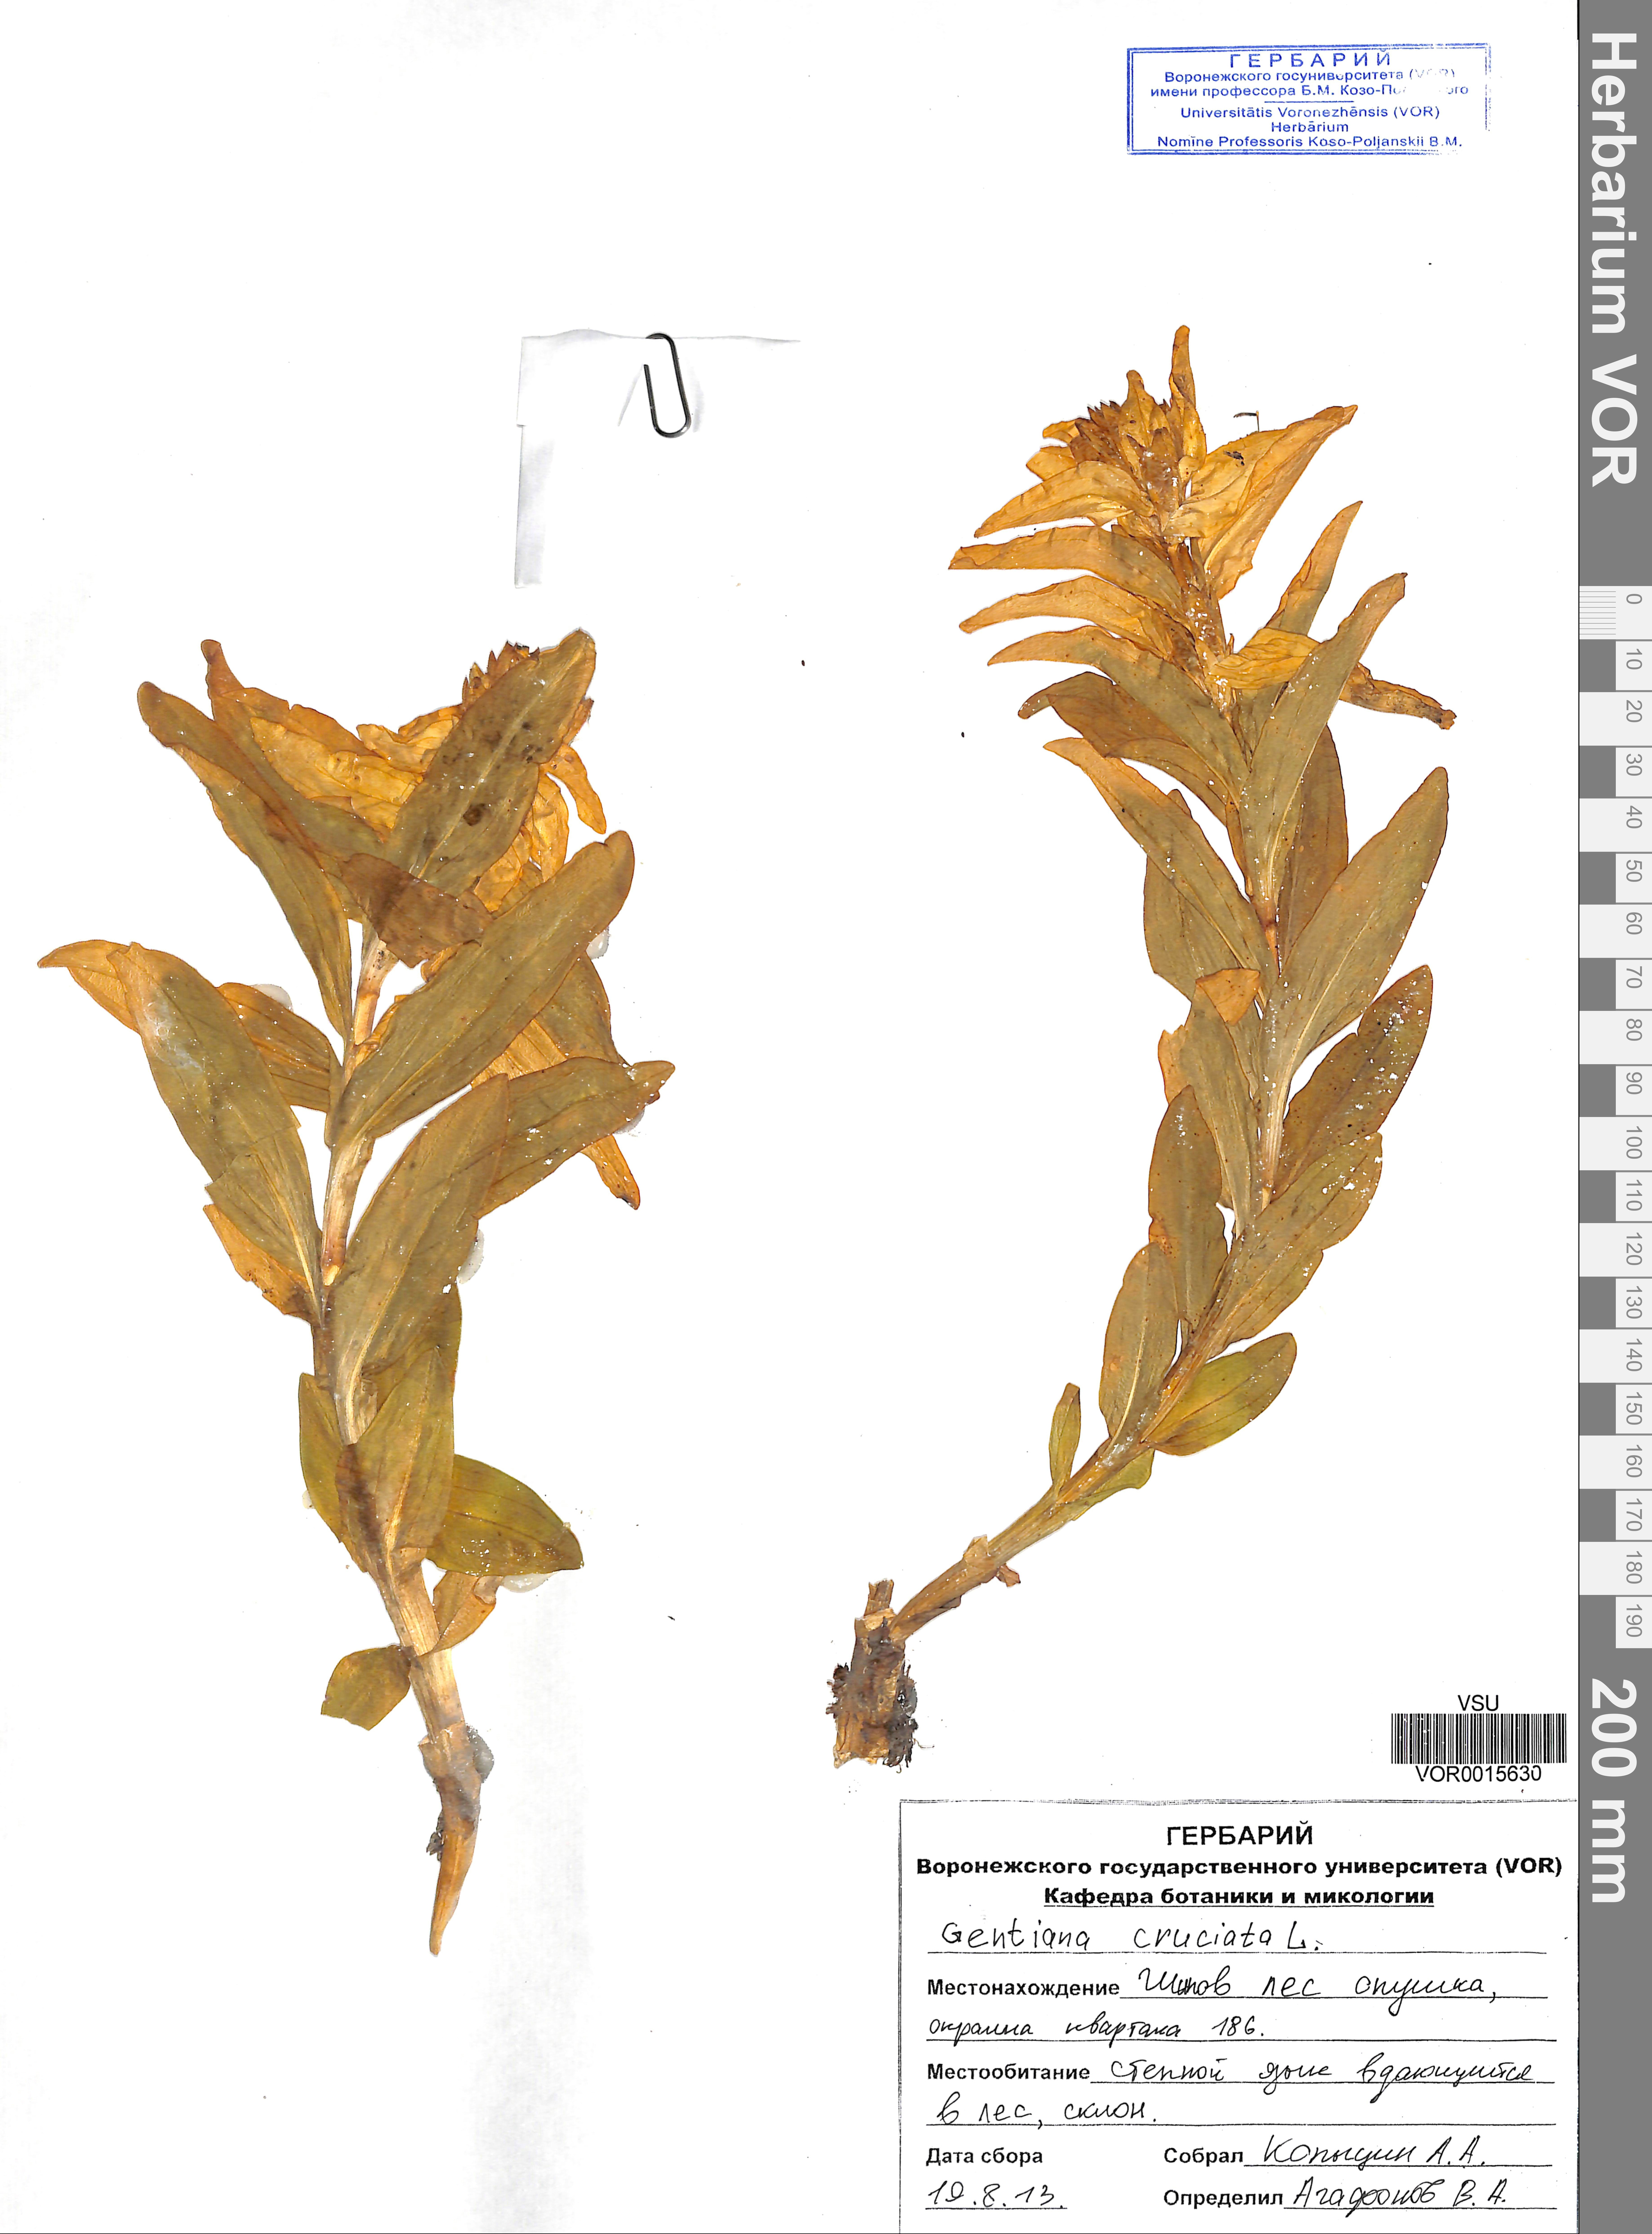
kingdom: Plantae
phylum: Tracheophyta
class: Magnoliopsida
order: Gentianales
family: Gentianaceae
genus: Gentiana
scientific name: Gentiana cruciata
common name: Cross gentian
